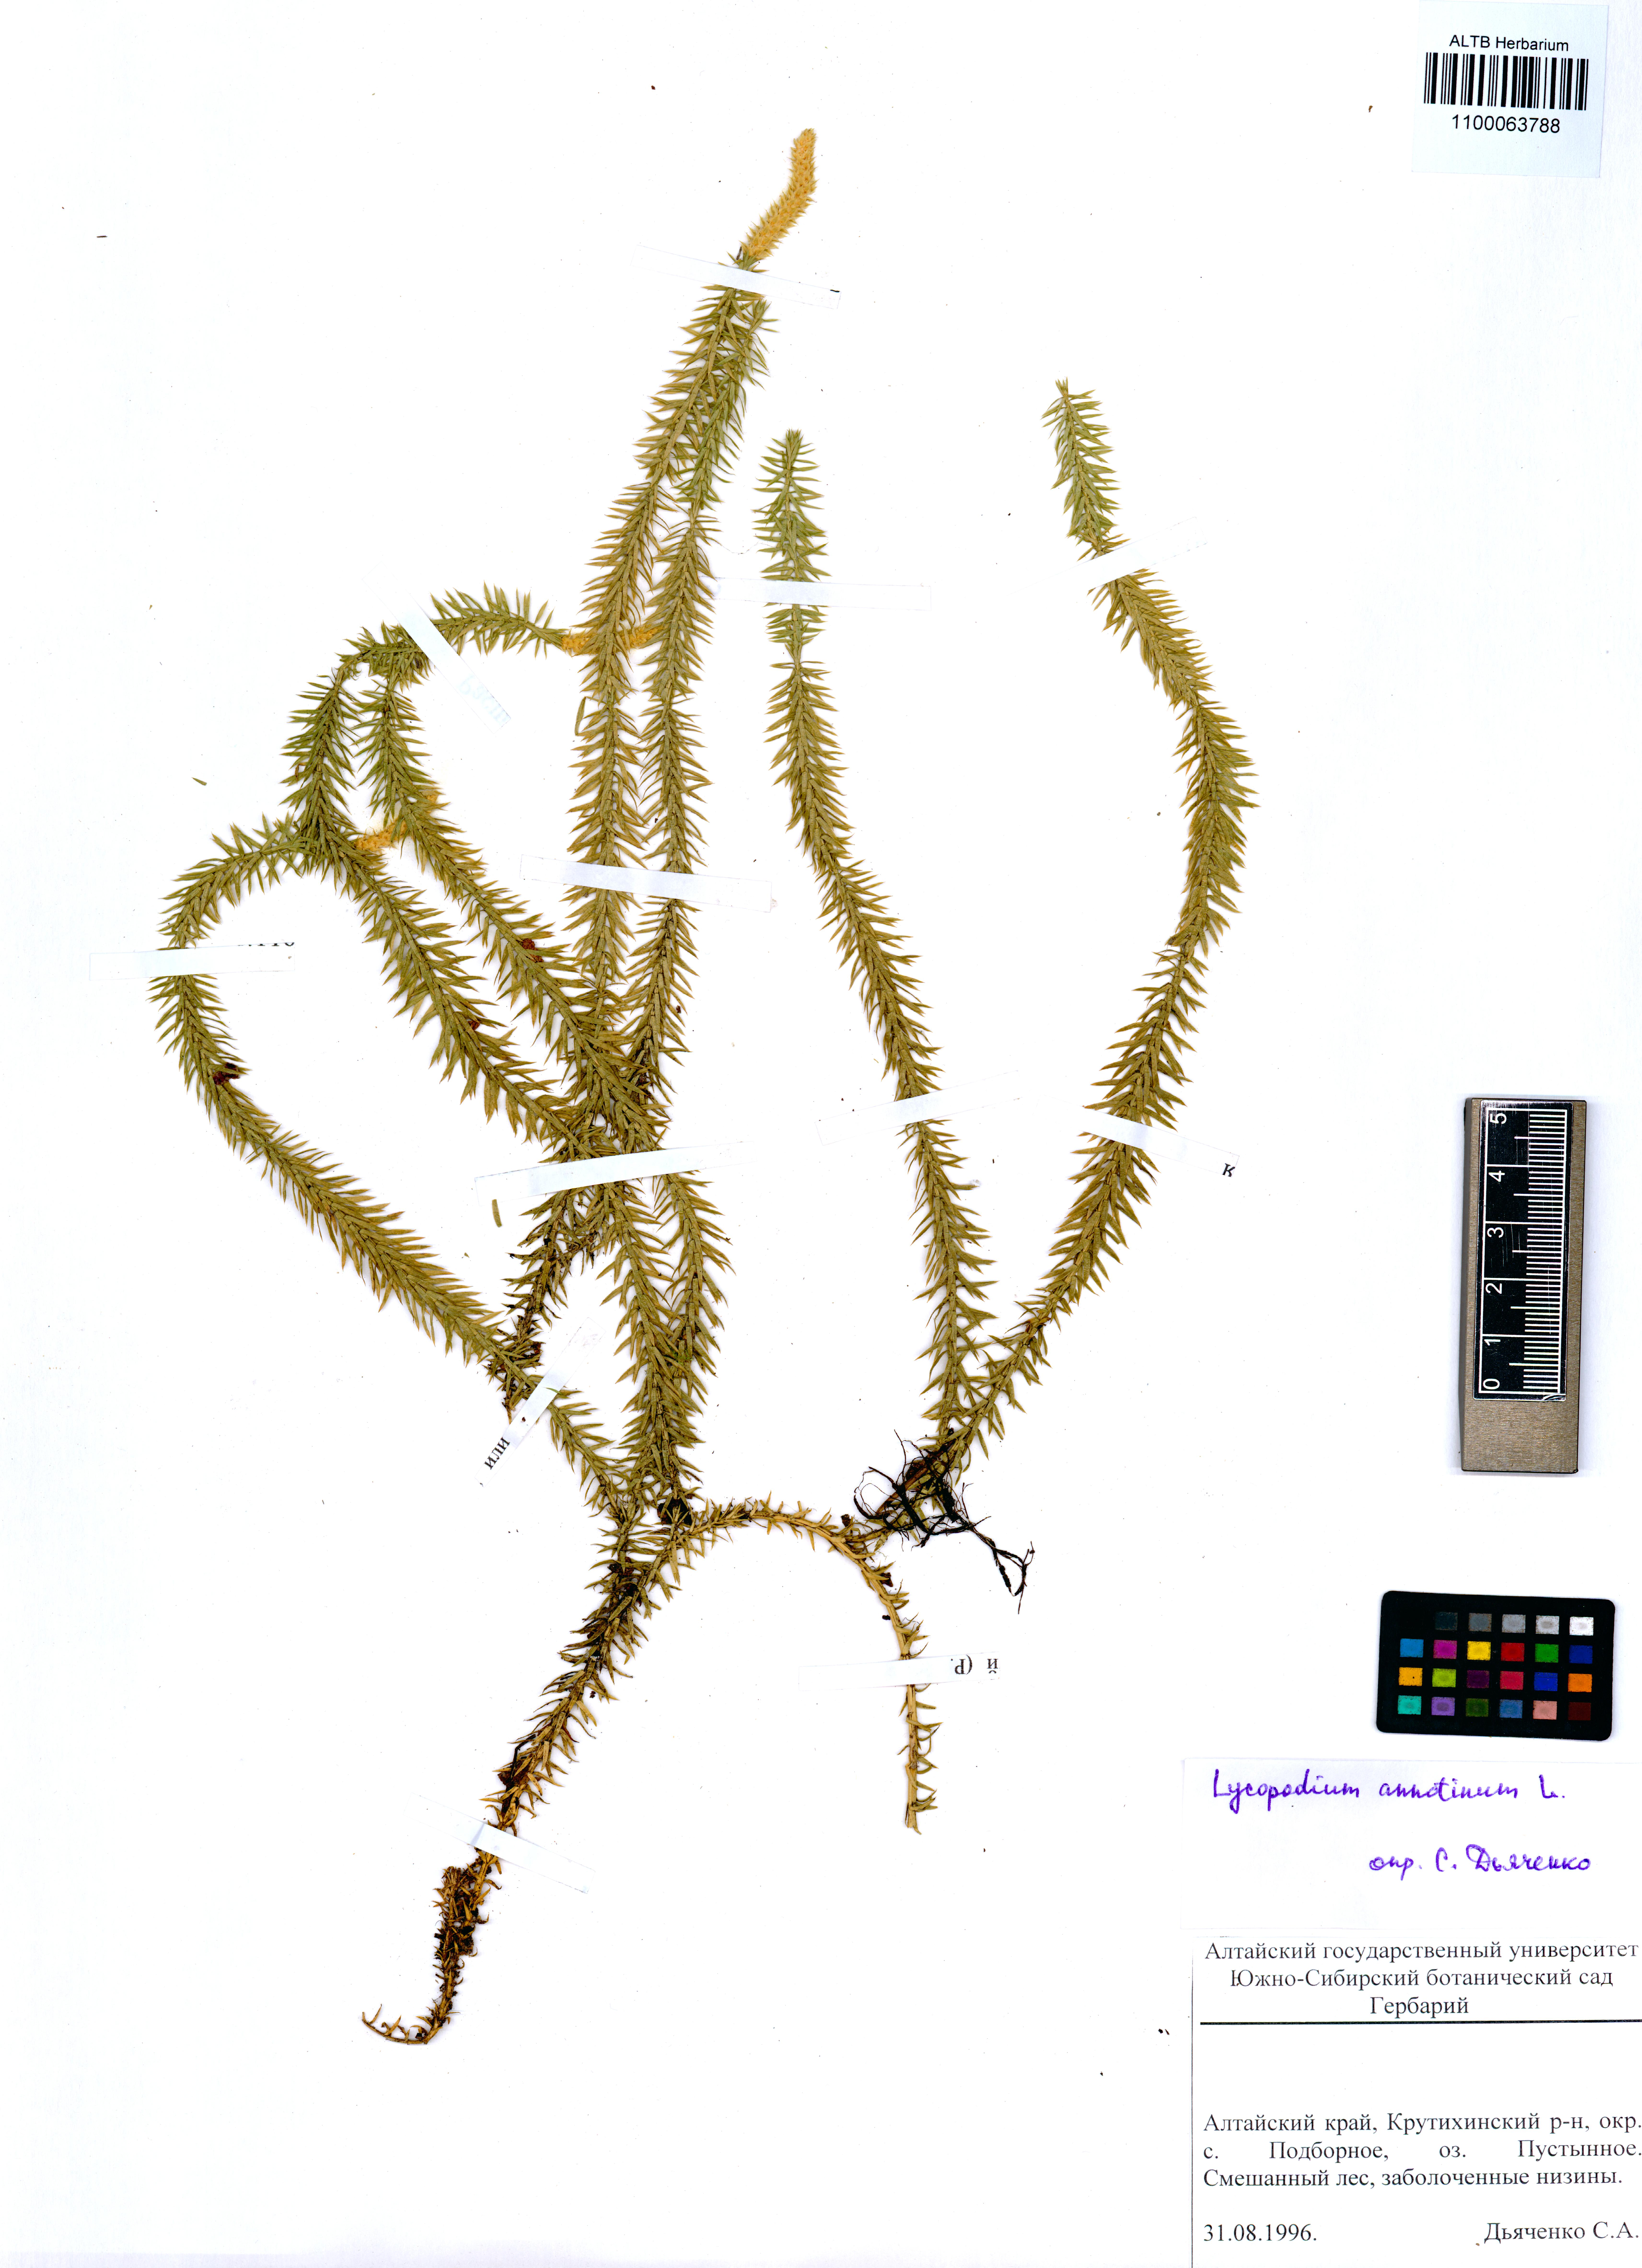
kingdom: Plantae
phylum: Tracheophyta
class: Lycopodiopsida
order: Lycopodiales
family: Lycopodiaceae
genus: Spinulum
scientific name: Spinulum annotinum
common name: Interrupted club-moss
